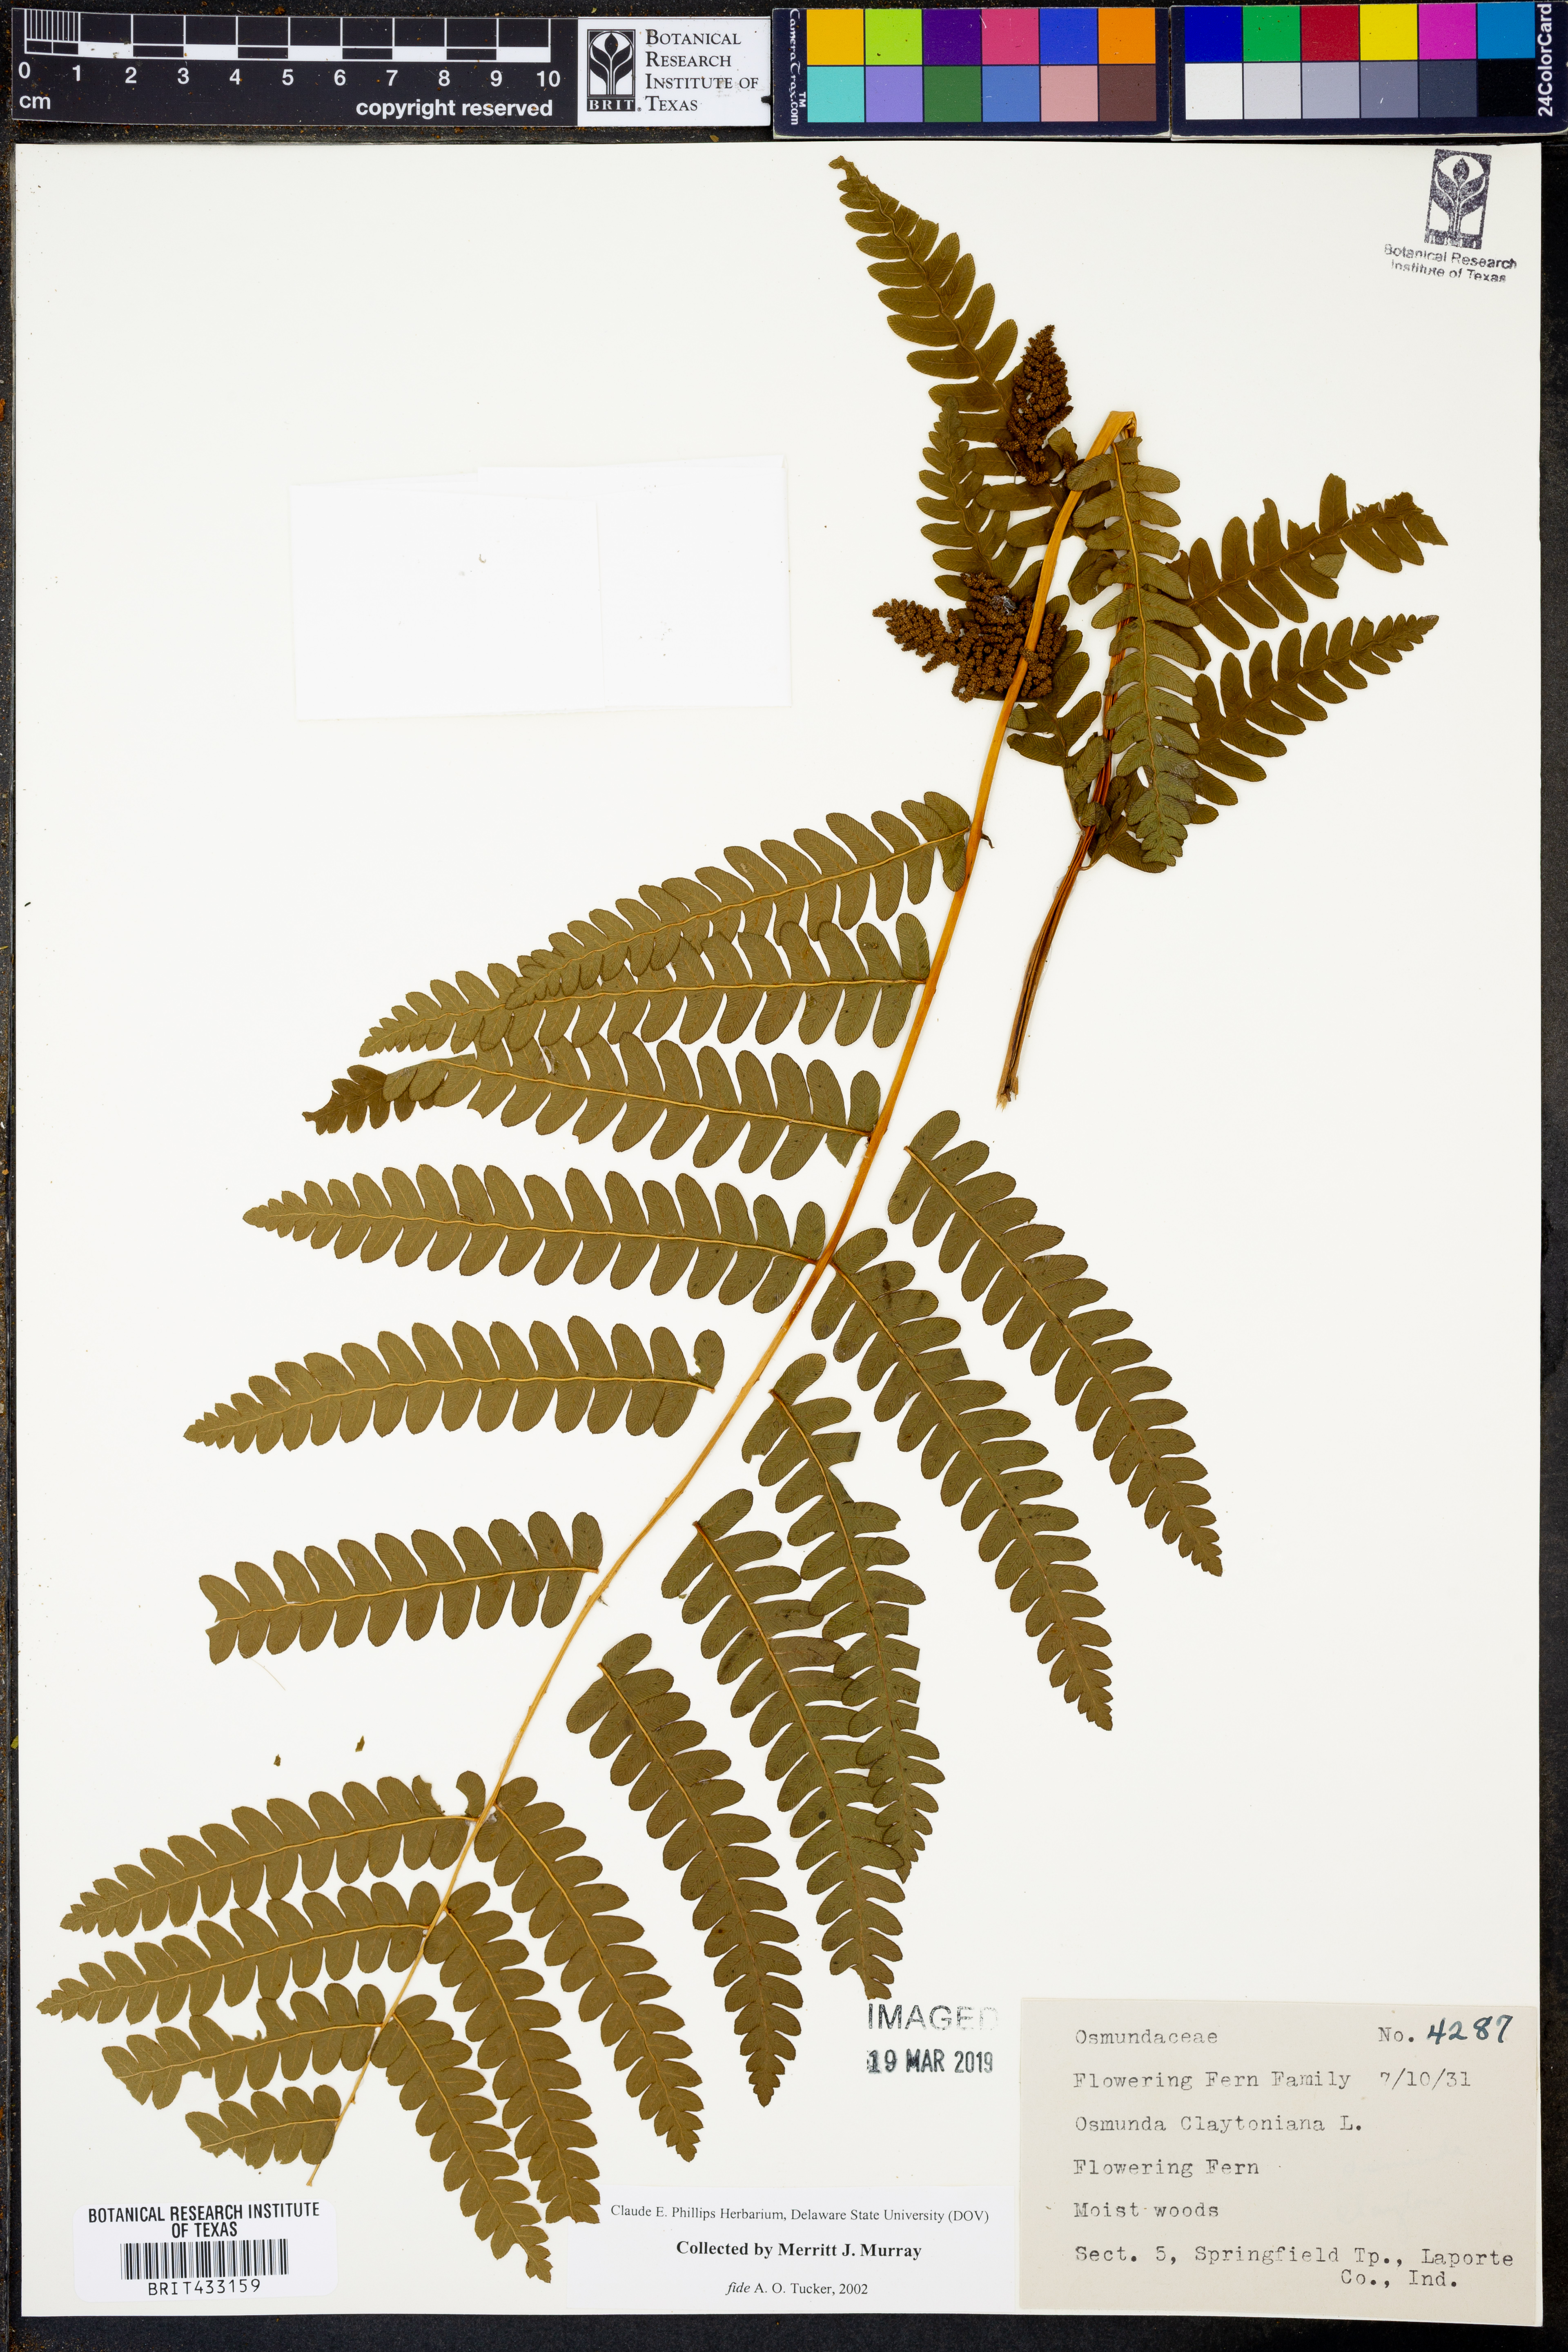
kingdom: Plantae
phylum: Tracheophyta
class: Polypodiopsida
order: Osmundales
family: Osmundaceae
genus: Claytosmunda
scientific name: Claytosmunda claytoniana
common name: Clayton's fern
